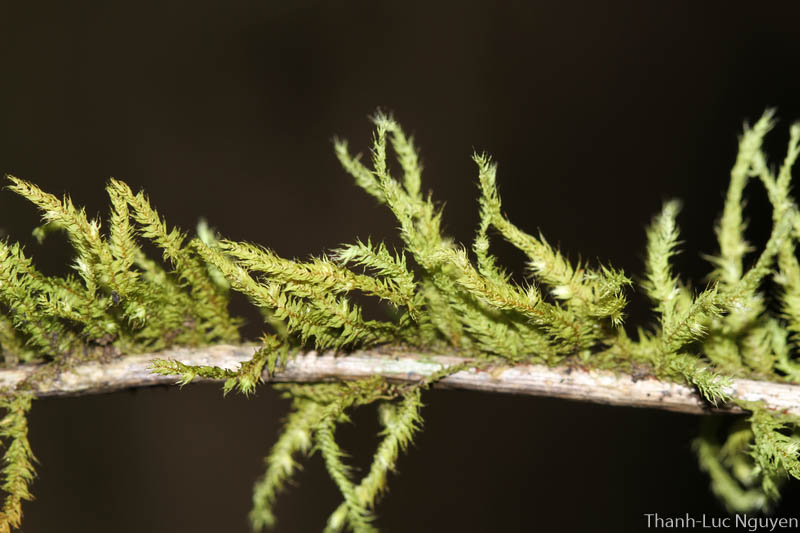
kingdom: Plantae
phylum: Bryophyta
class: Bryopsida
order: Hypnales
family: Meteoriaceae
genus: Trachycladiella
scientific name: Trachycladiella sparsa
